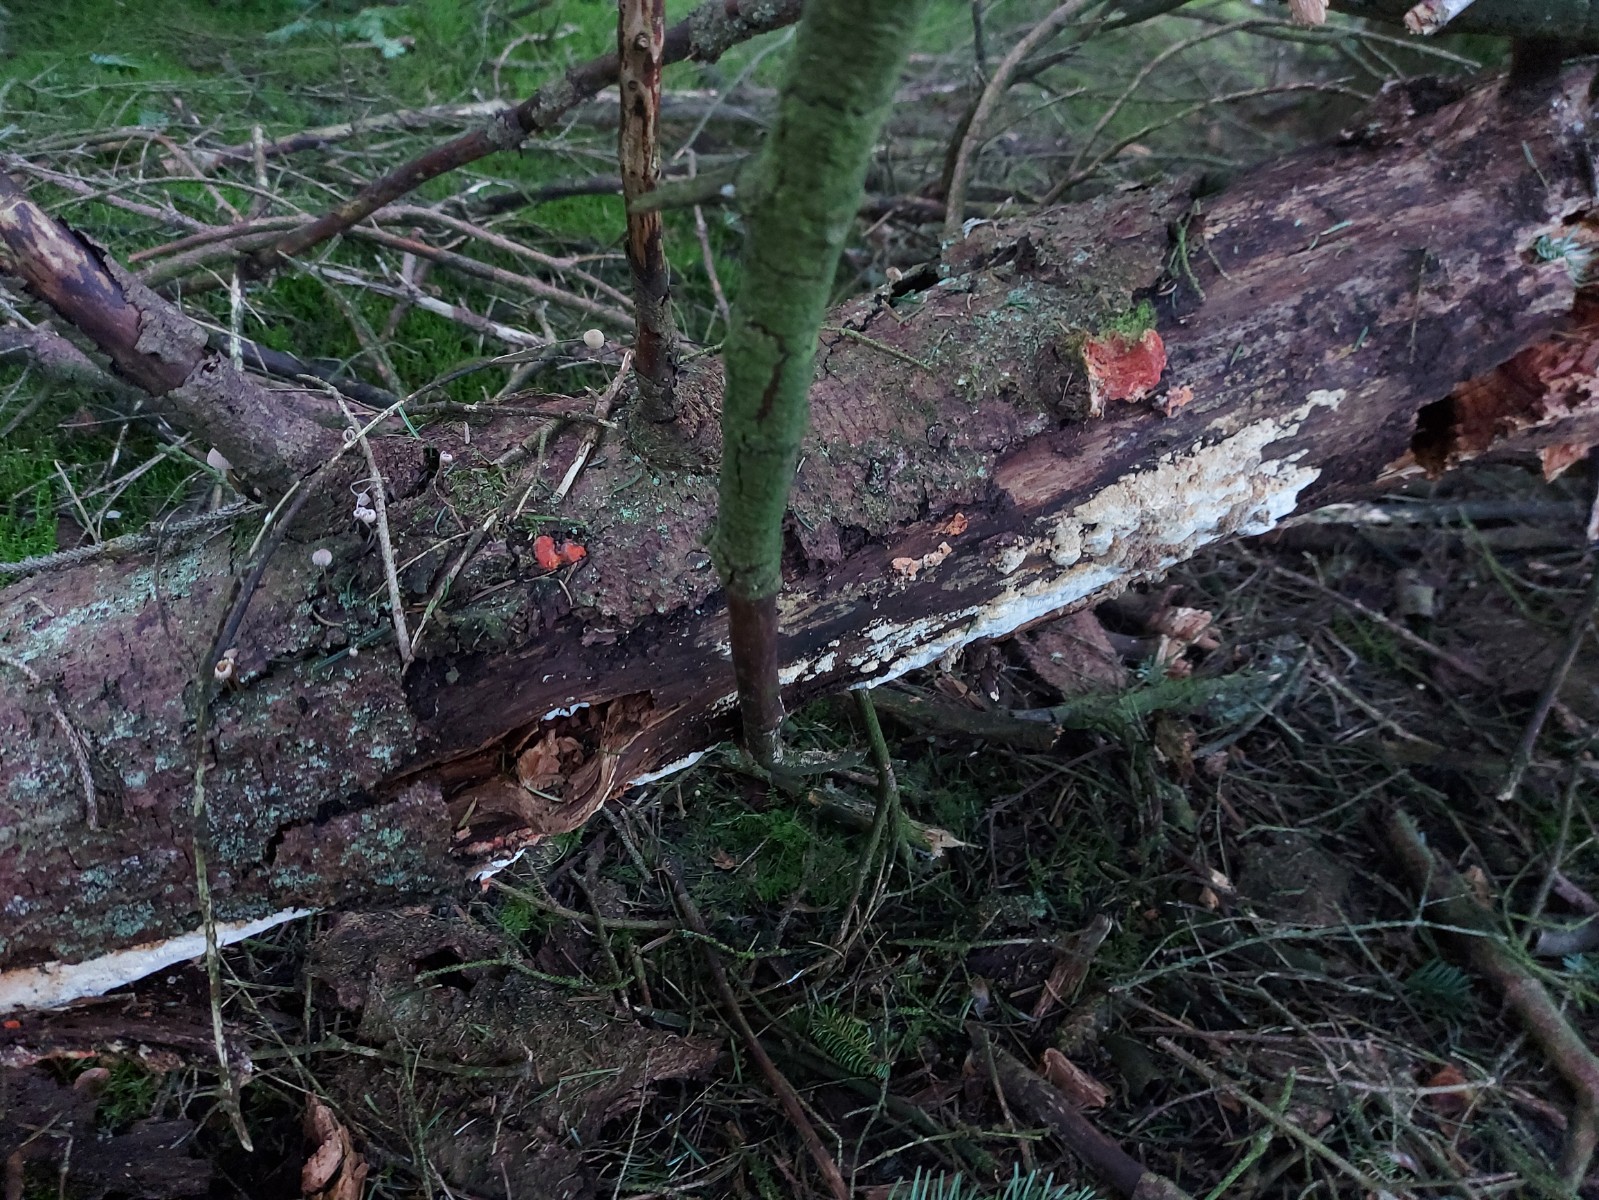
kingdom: Fungi
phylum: Ascomycota
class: Leotiomycetes
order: Helotiales
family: Hyphodiscaceae
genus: Hyphodiscus
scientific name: Hyphodiscus hymeniophilus
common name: snyltende sirskive
